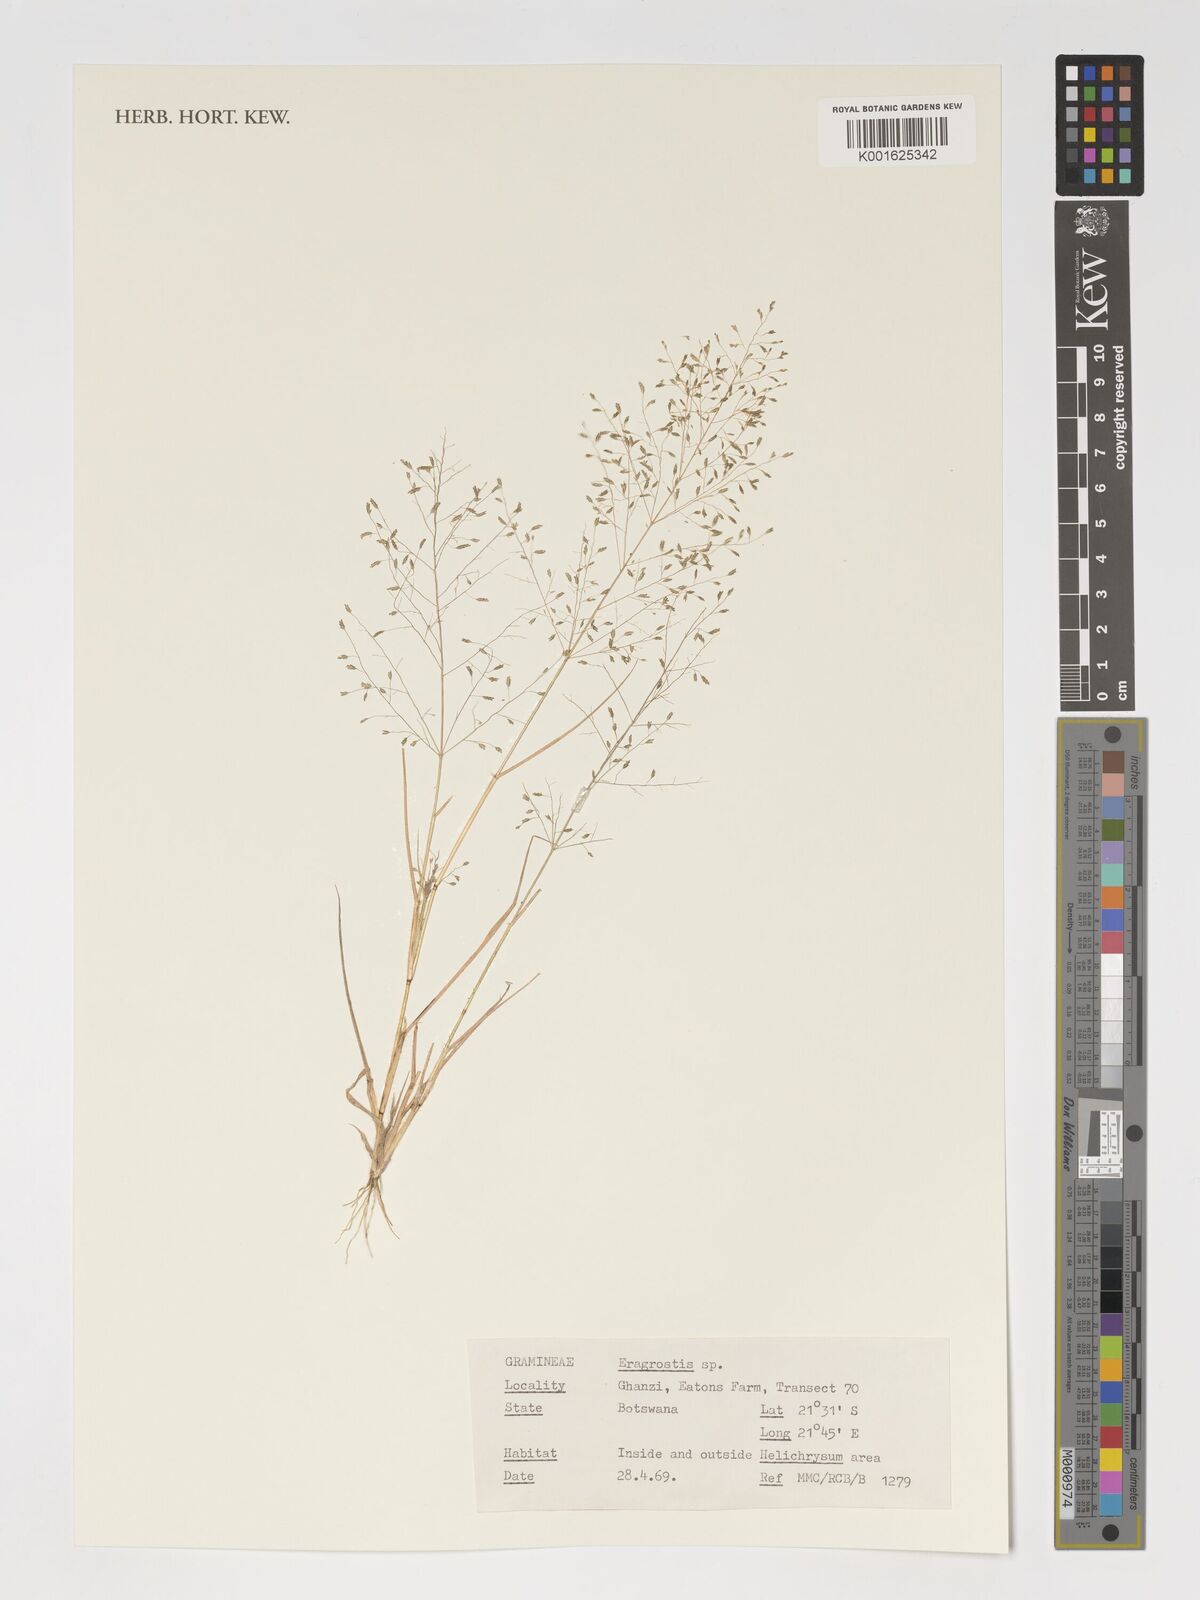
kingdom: Plantae
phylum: Tracheophyta
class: Liliopsida
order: Poales
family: Poaceae
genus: Eragrostis
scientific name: Eragrostis
